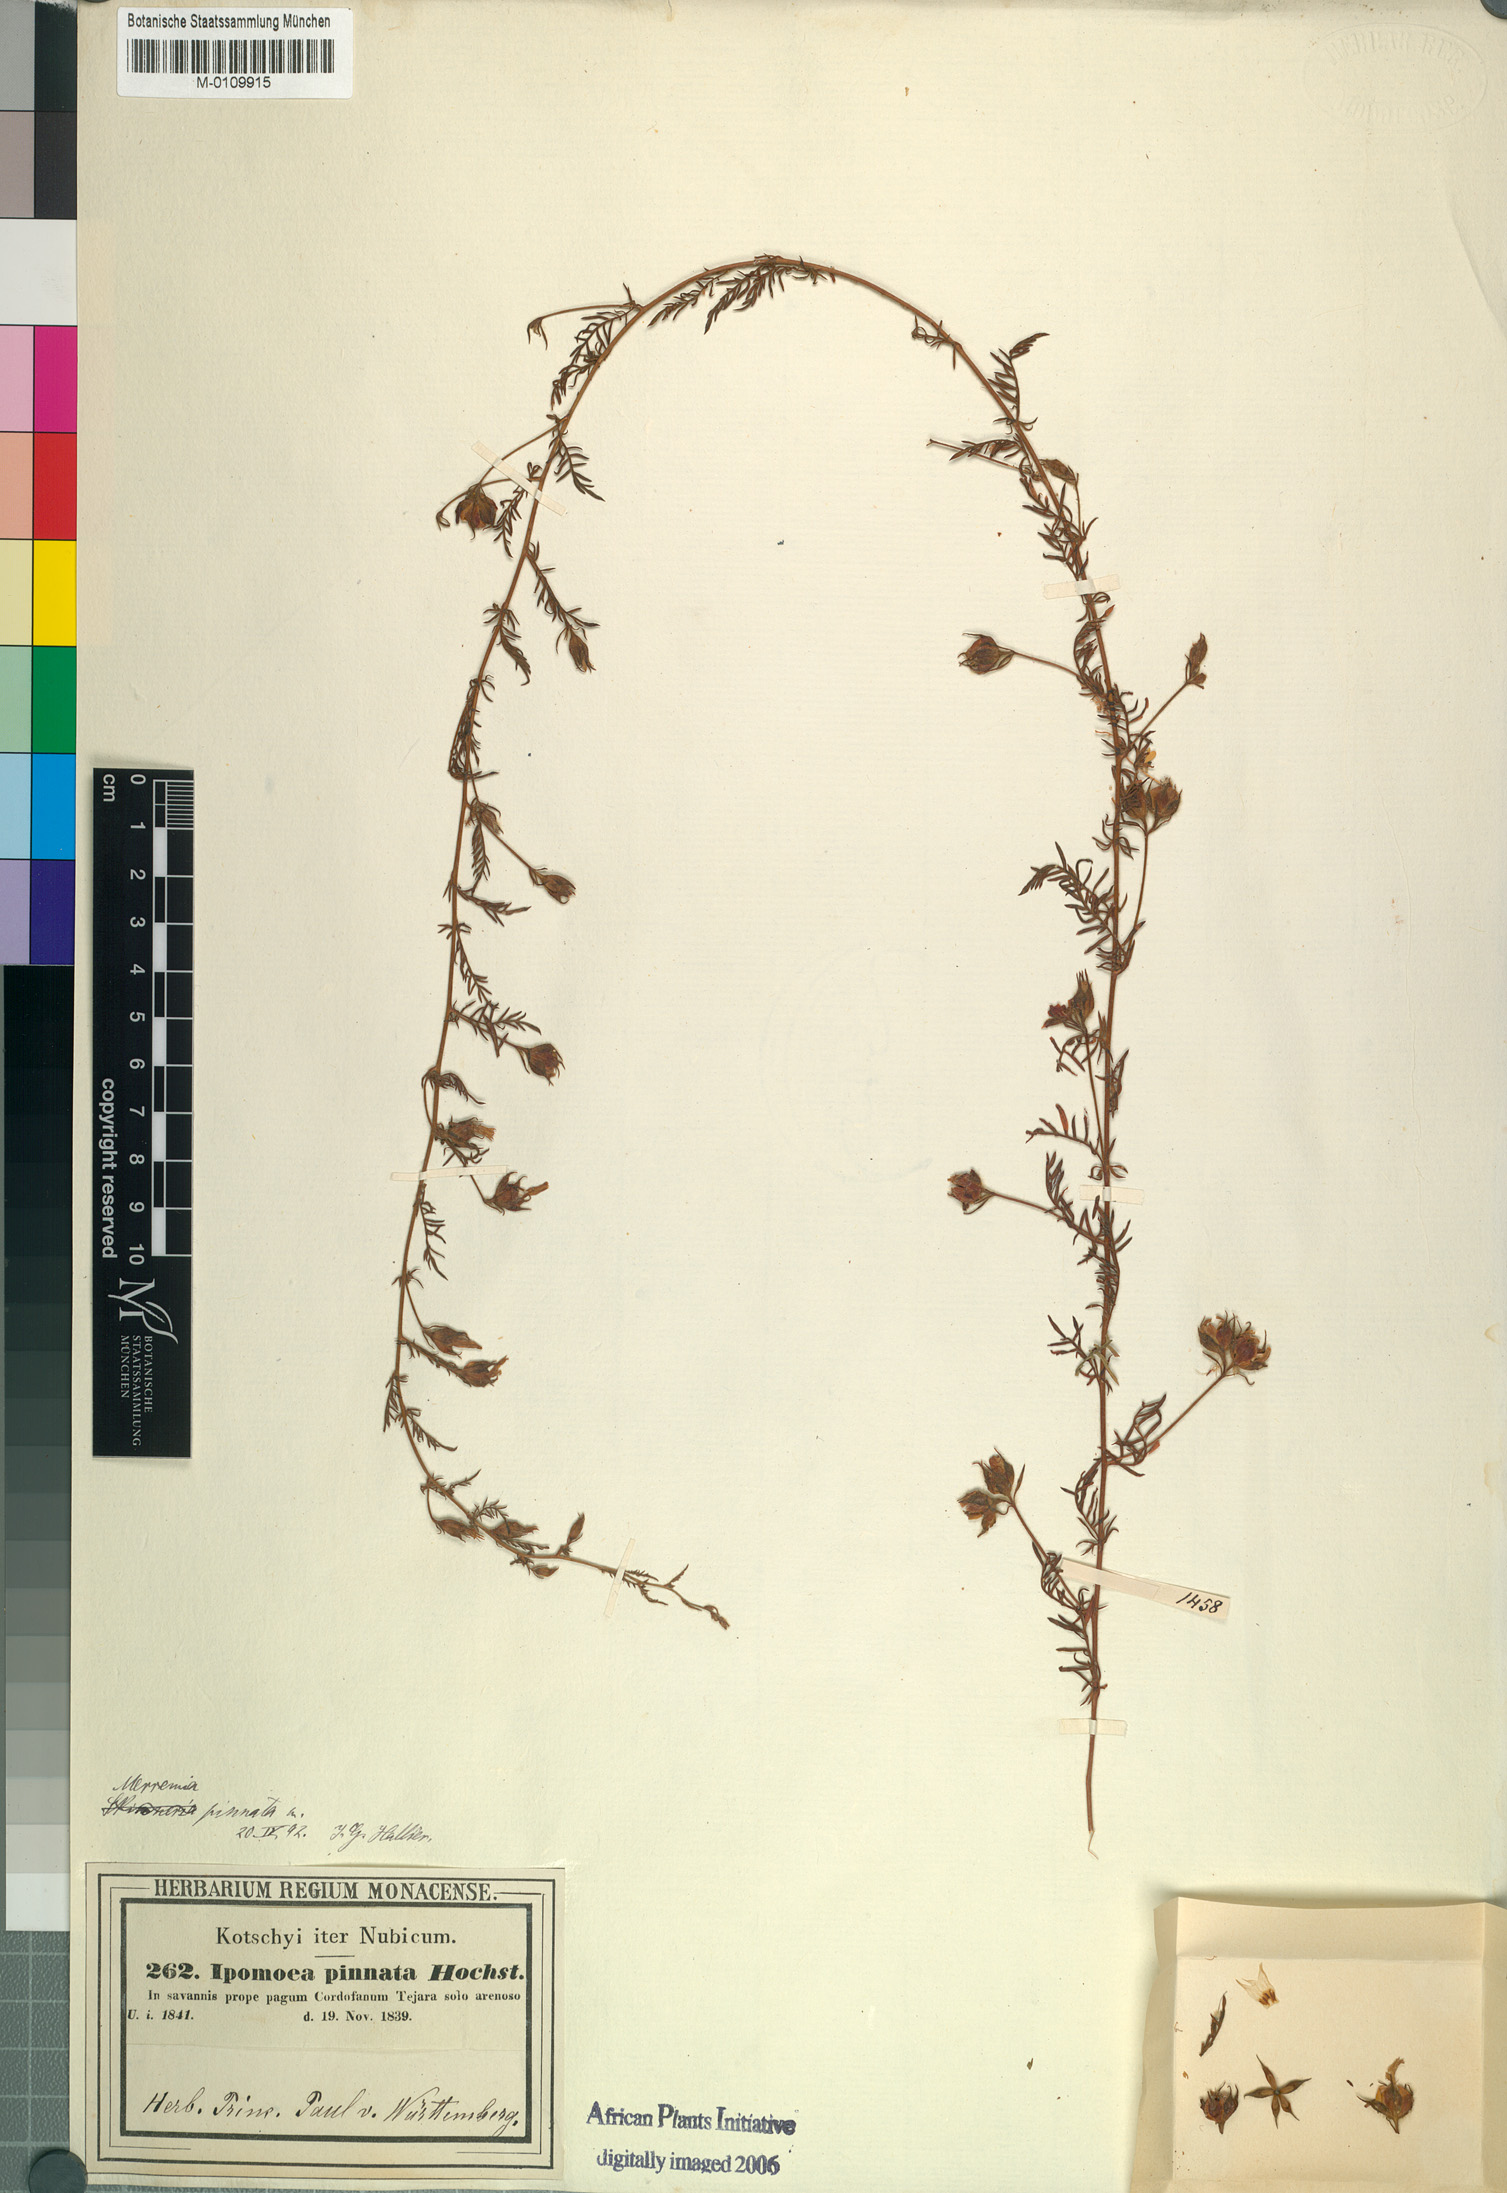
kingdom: Plantae
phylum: Tracheophyta
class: Magnoliopsida
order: Solanales
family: Convolvulaceae
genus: Xenostegia
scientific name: Xenostegia pinnata
